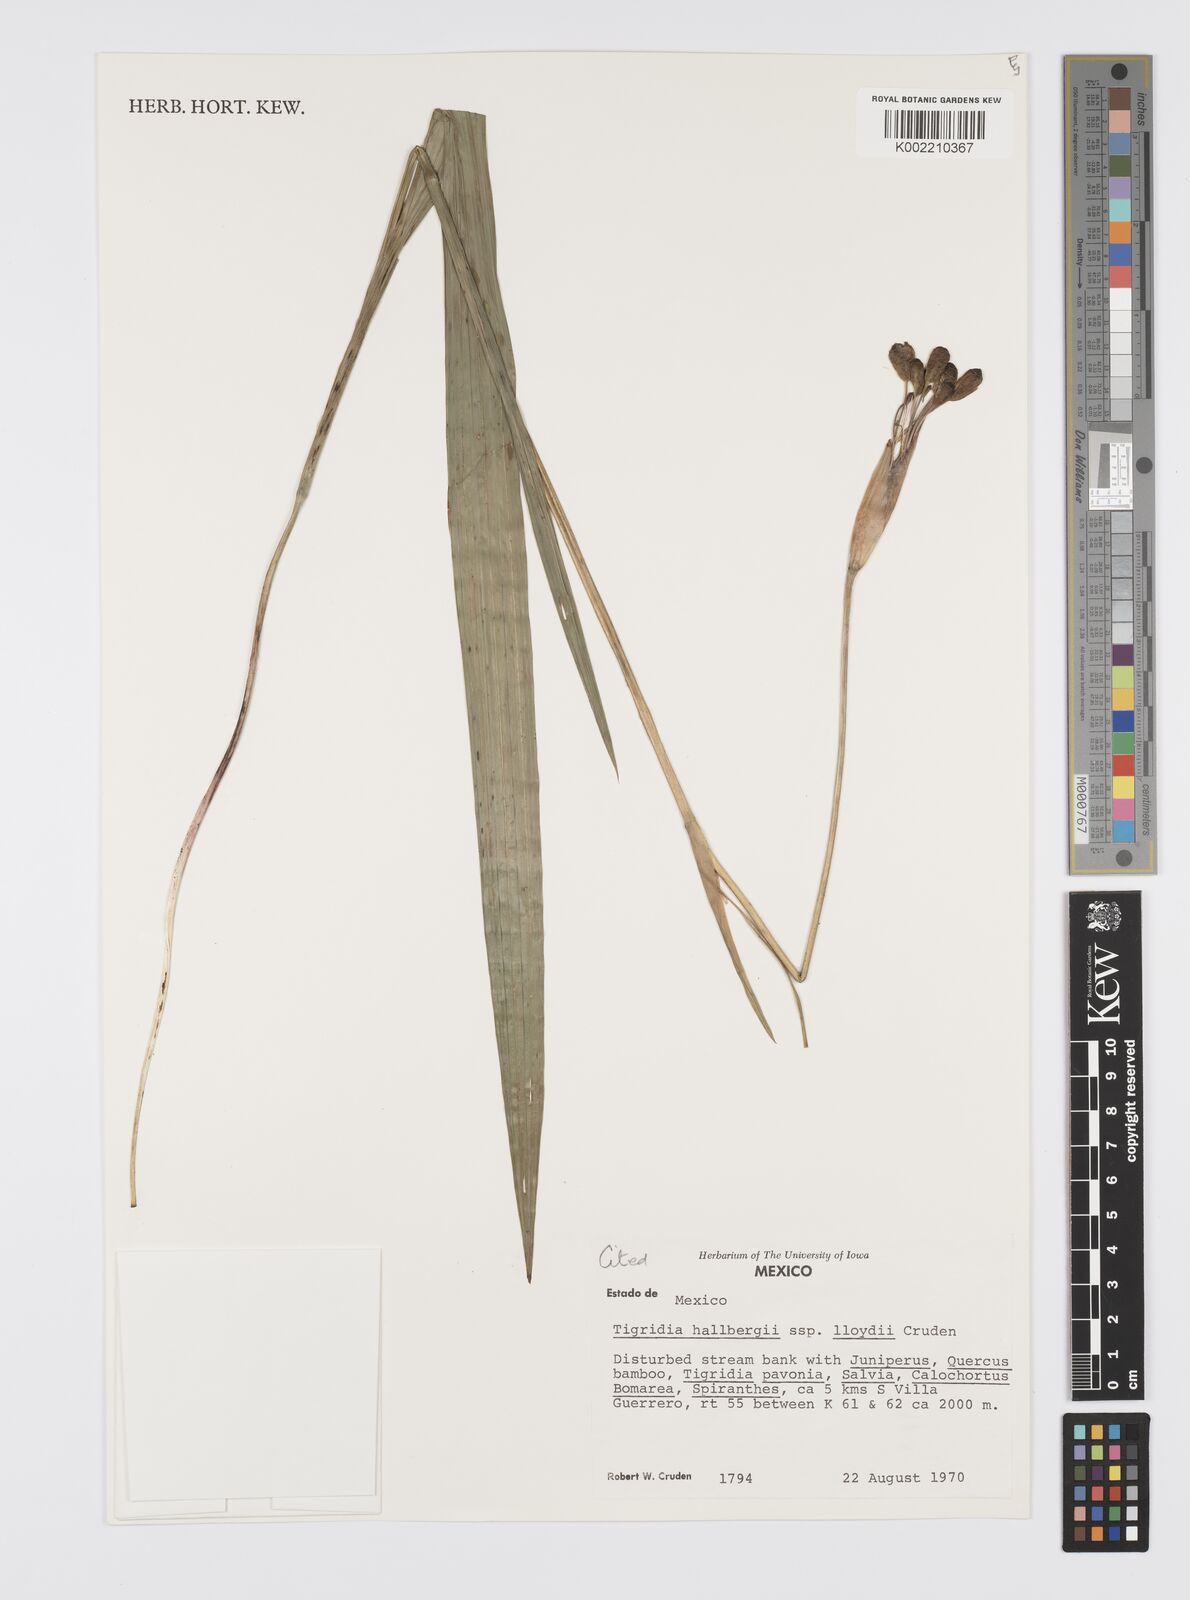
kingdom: Plantae
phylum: Tracheophyta
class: Liliopsida
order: Asparagales
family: Iridaceae
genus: Tigridia
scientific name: Tigridia hallbergii
